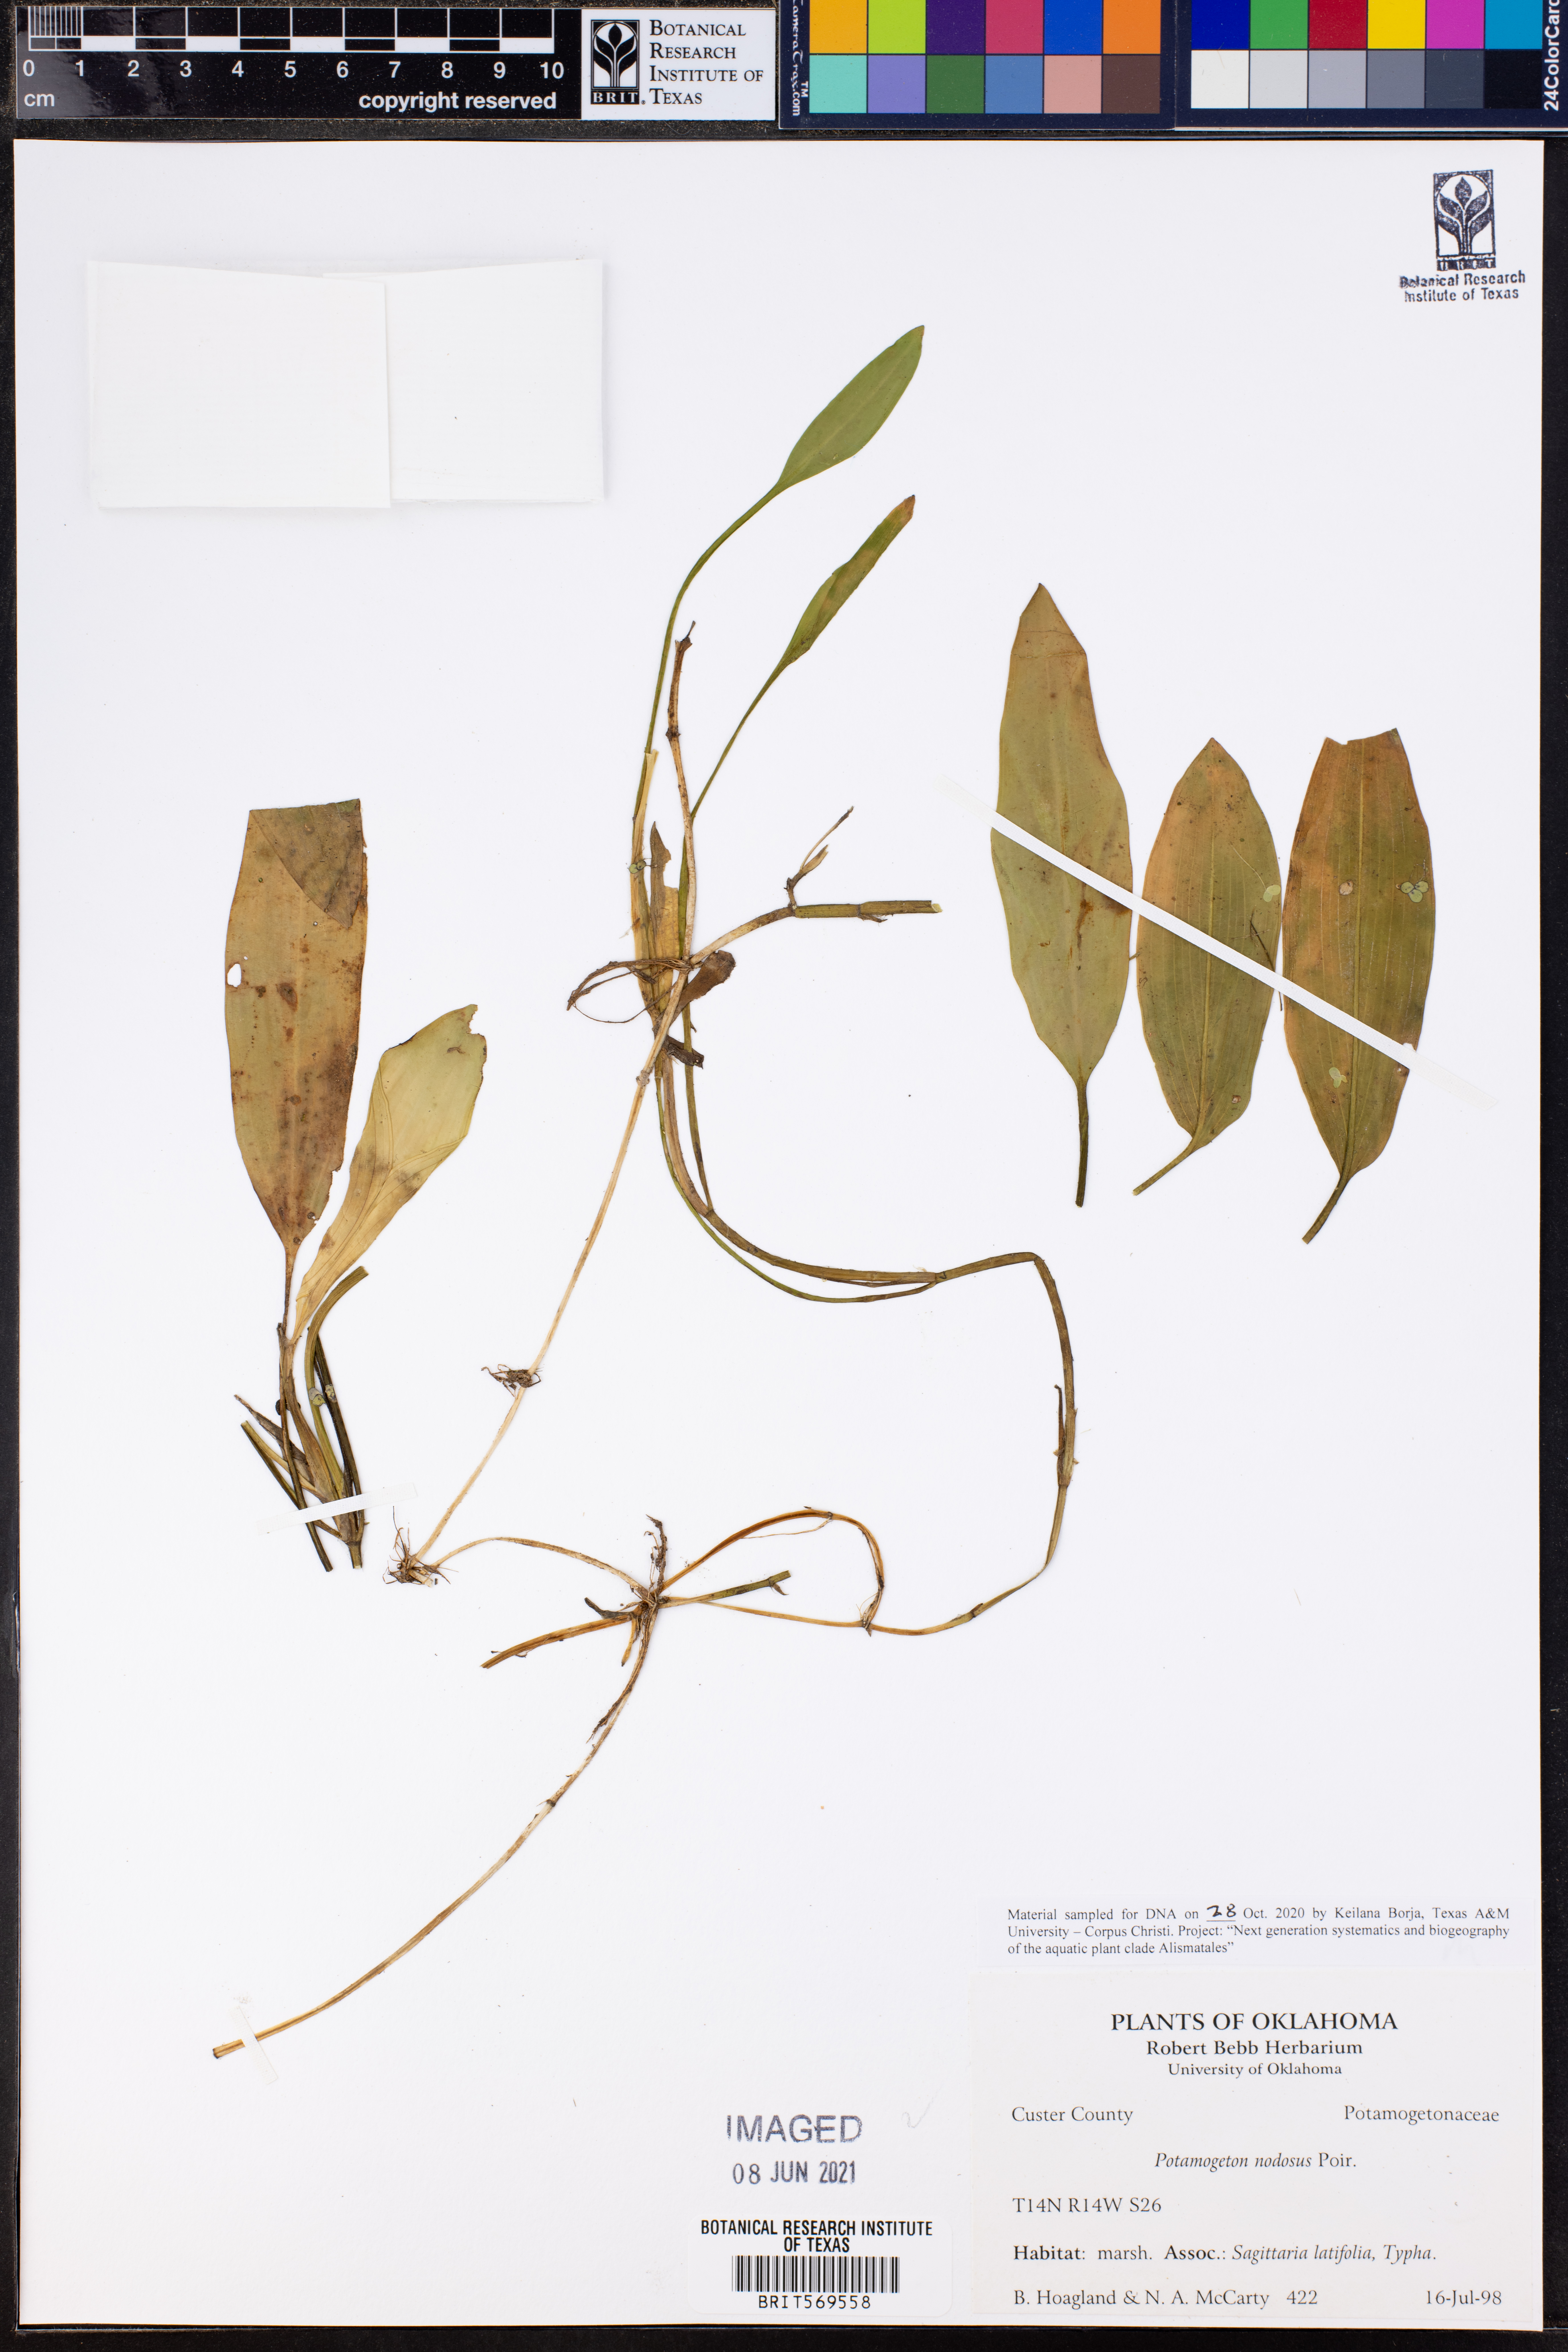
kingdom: Plantae
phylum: Tracheophyta
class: Liliopsida
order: Alismatales
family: Potamogetonaceae
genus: Potamogeton
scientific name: Potamogeton nodosus
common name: Loddon pondweed
